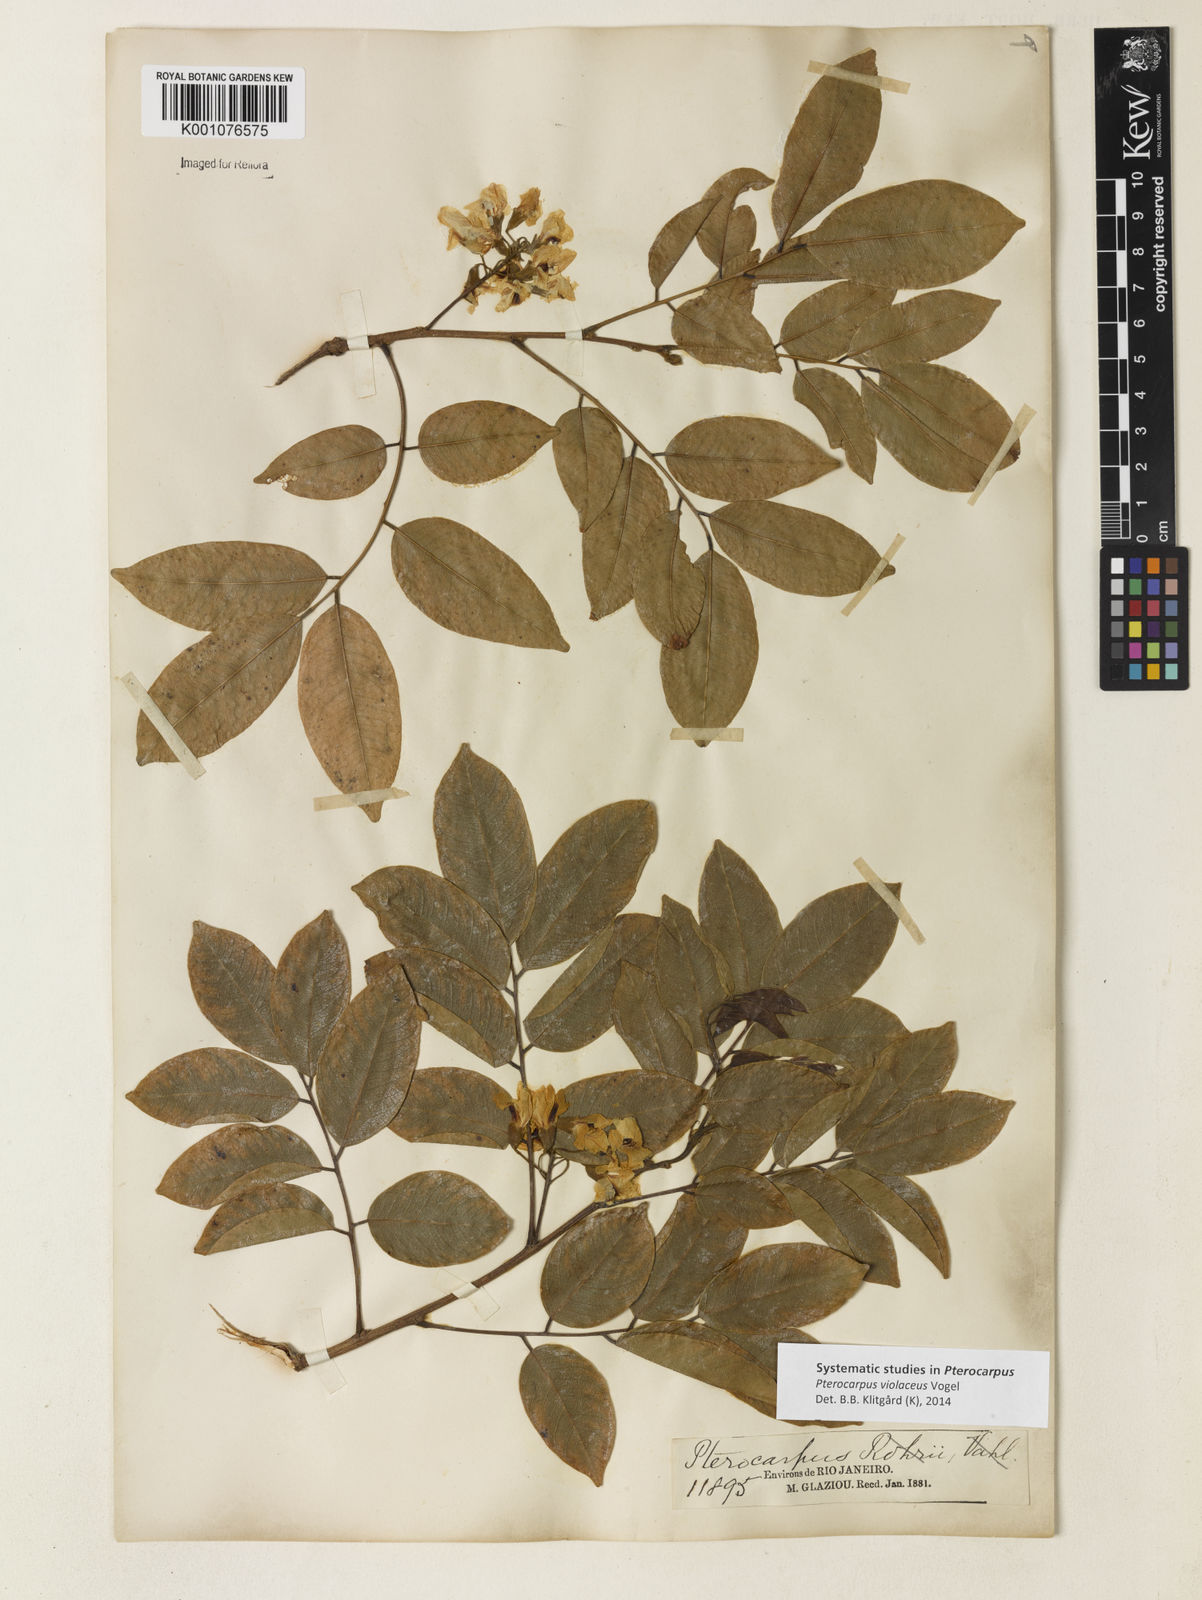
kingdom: Plantae
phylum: Tracheophyta
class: Magnoliopsida
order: Fabales
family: Fabaceae
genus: Pterocarpus
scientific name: Pterocarpus rohrii
